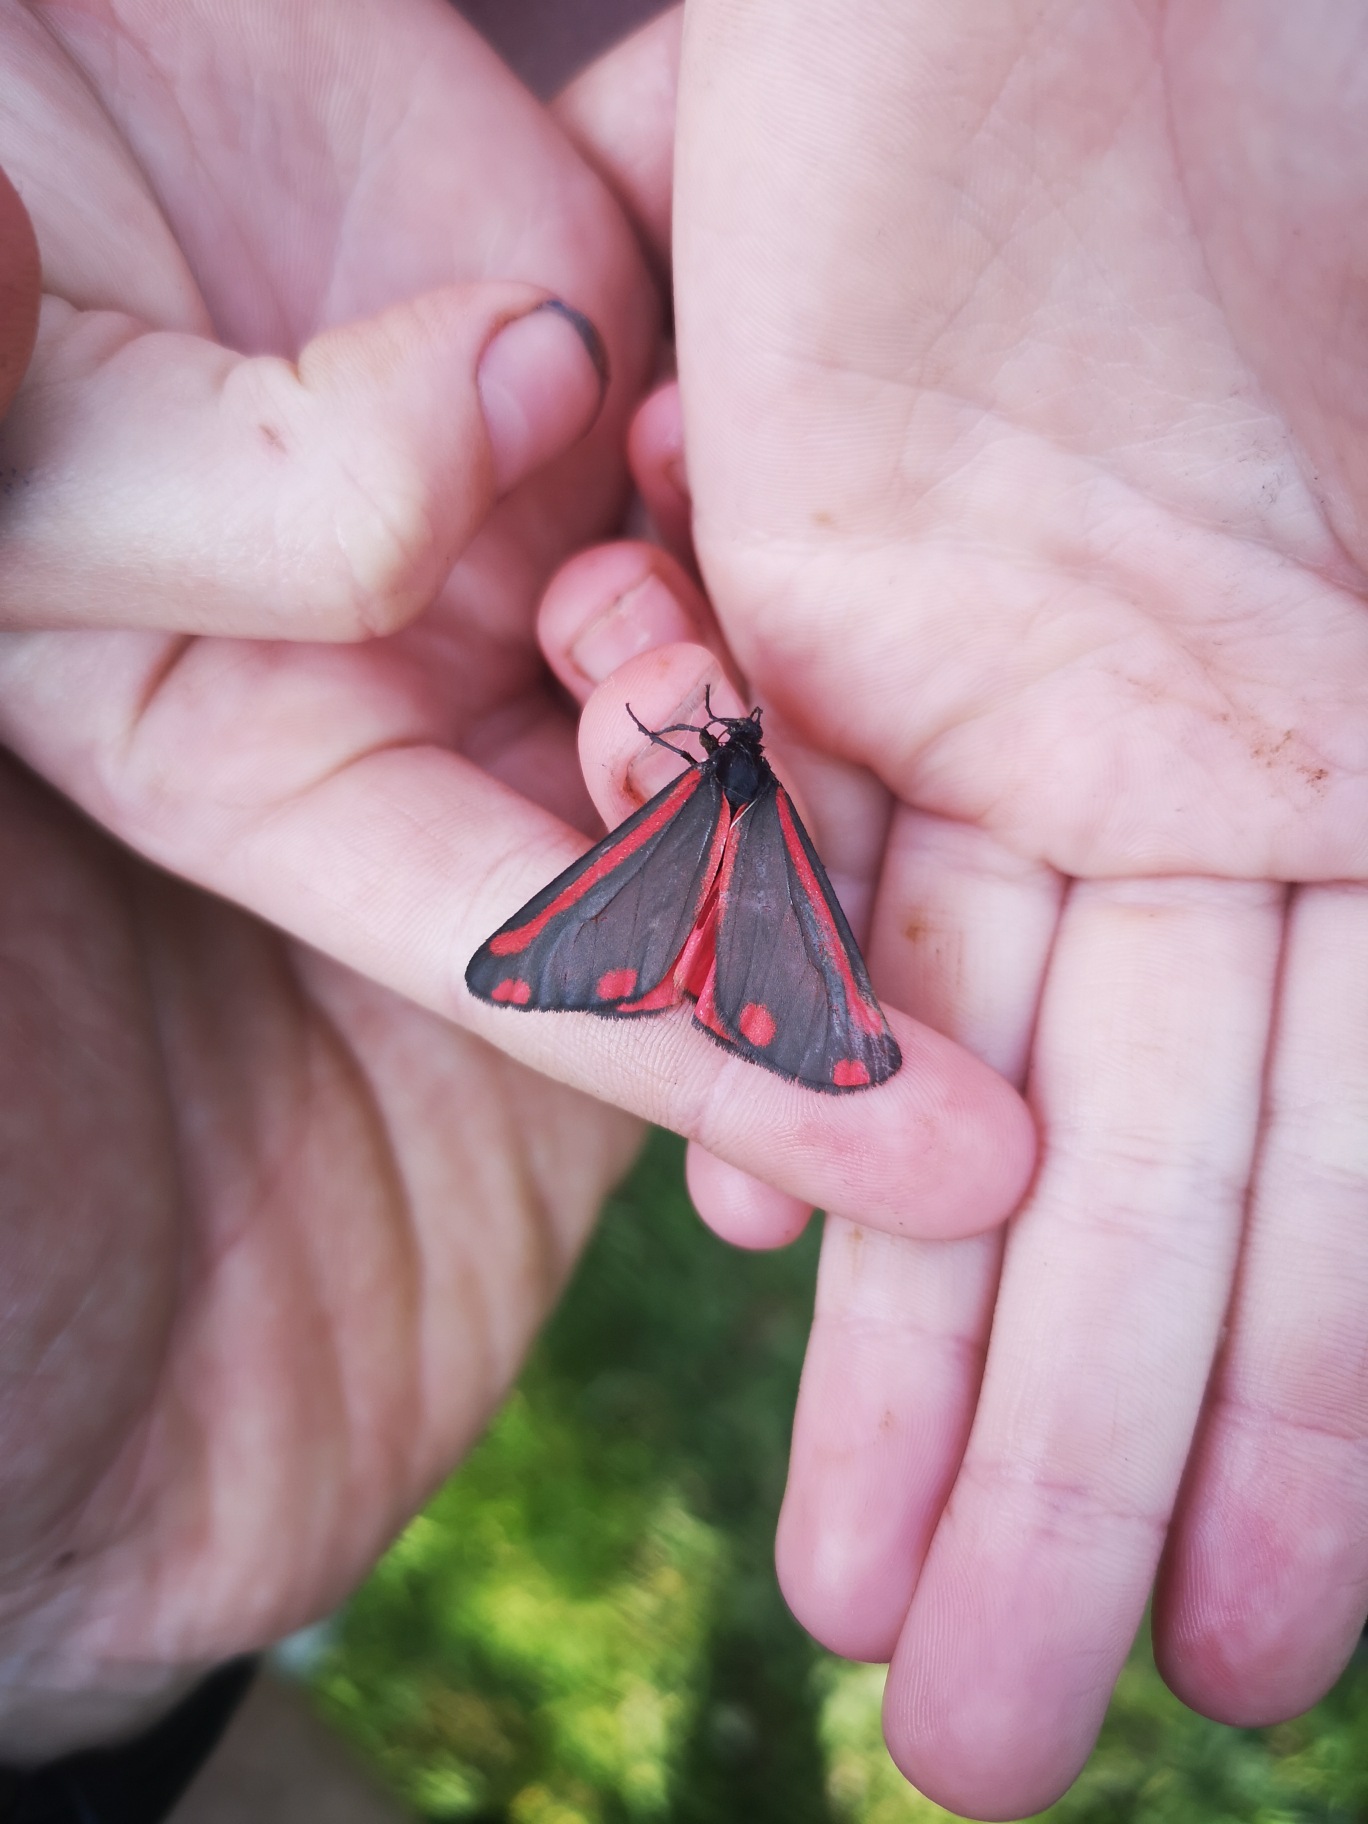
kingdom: Animalia
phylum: Arthropoda
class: Insecta
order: Lepidoptera
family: Erebidae
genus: Tyria
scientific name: Tyria jacobaeae
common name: Blodplet
